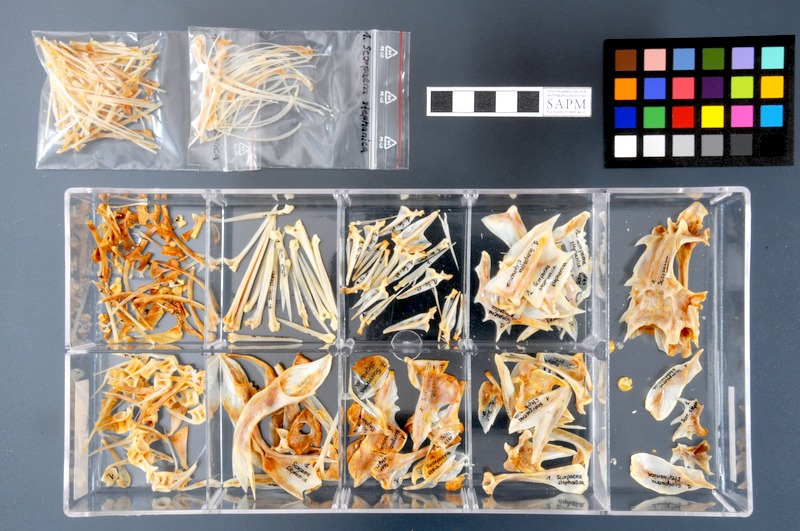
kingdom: Animalia
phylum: Chordata
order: Scorpaeniformes
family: Scorpaenidae
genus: Scorpaena
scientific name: Scorpaena stephanica
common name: Spotted fin scorpionfish
